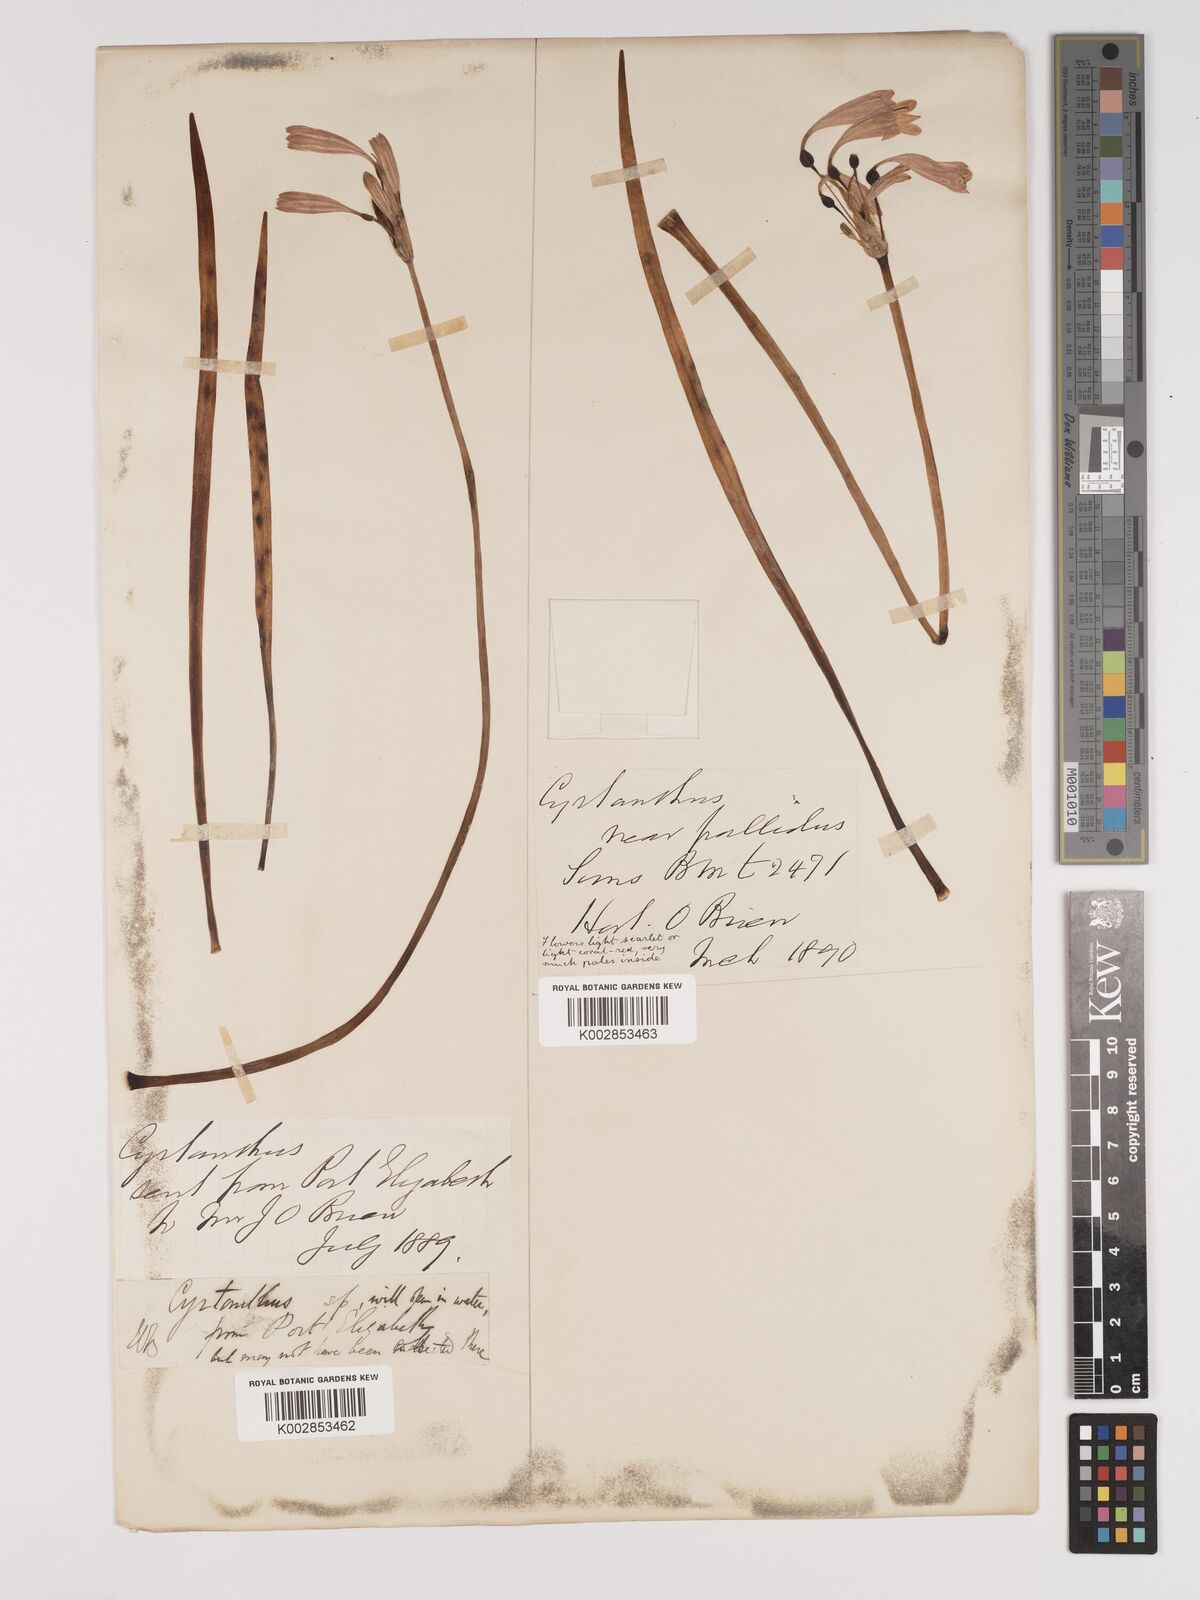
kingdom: Plantae
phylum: Tracheophyta
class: Liliopsida
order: Asparagales
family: Amaryllidaceae
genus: Cyrtanthus
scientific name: Cyrtanthus bicolor
